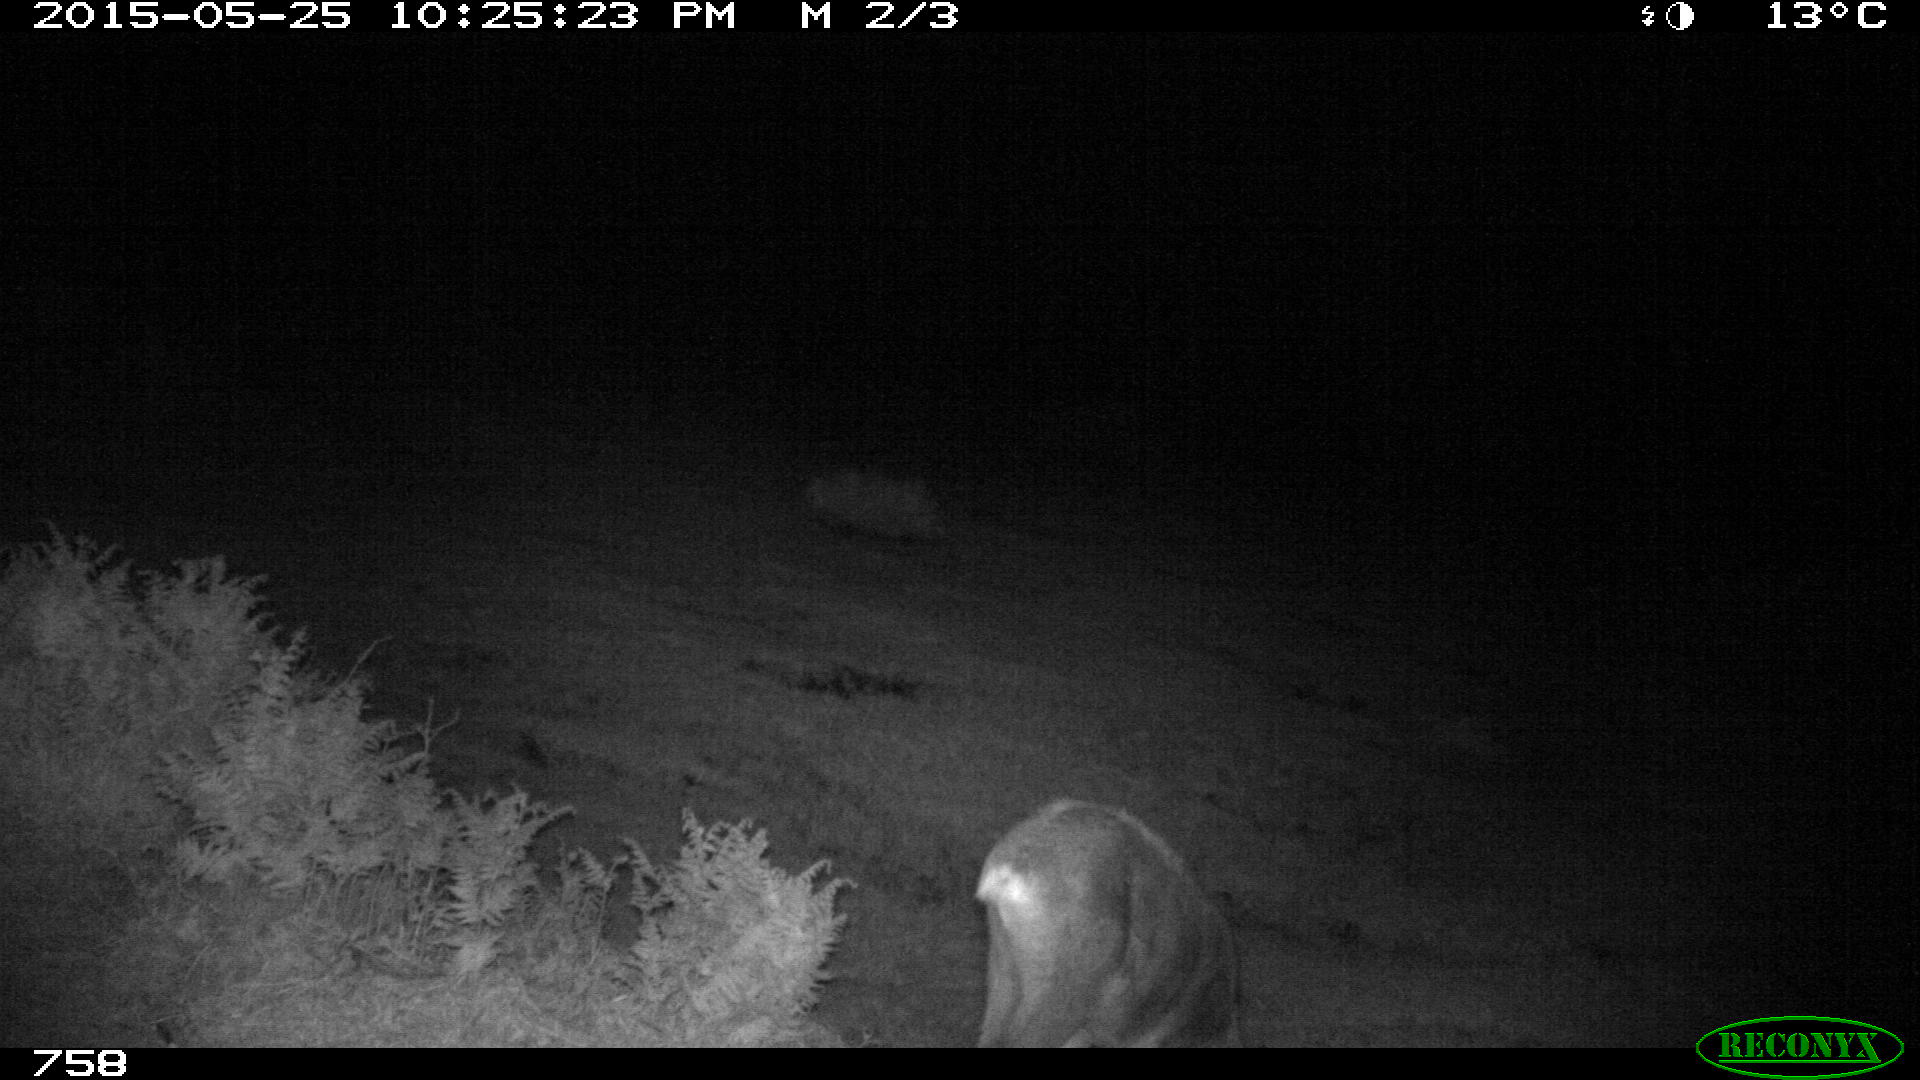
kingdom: Animalia
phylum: Chordata
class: Mammalia
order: Artiodactyla
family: Cervidae
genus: Capreolus
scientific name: Capreolus capreolus
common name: Western roe deer
